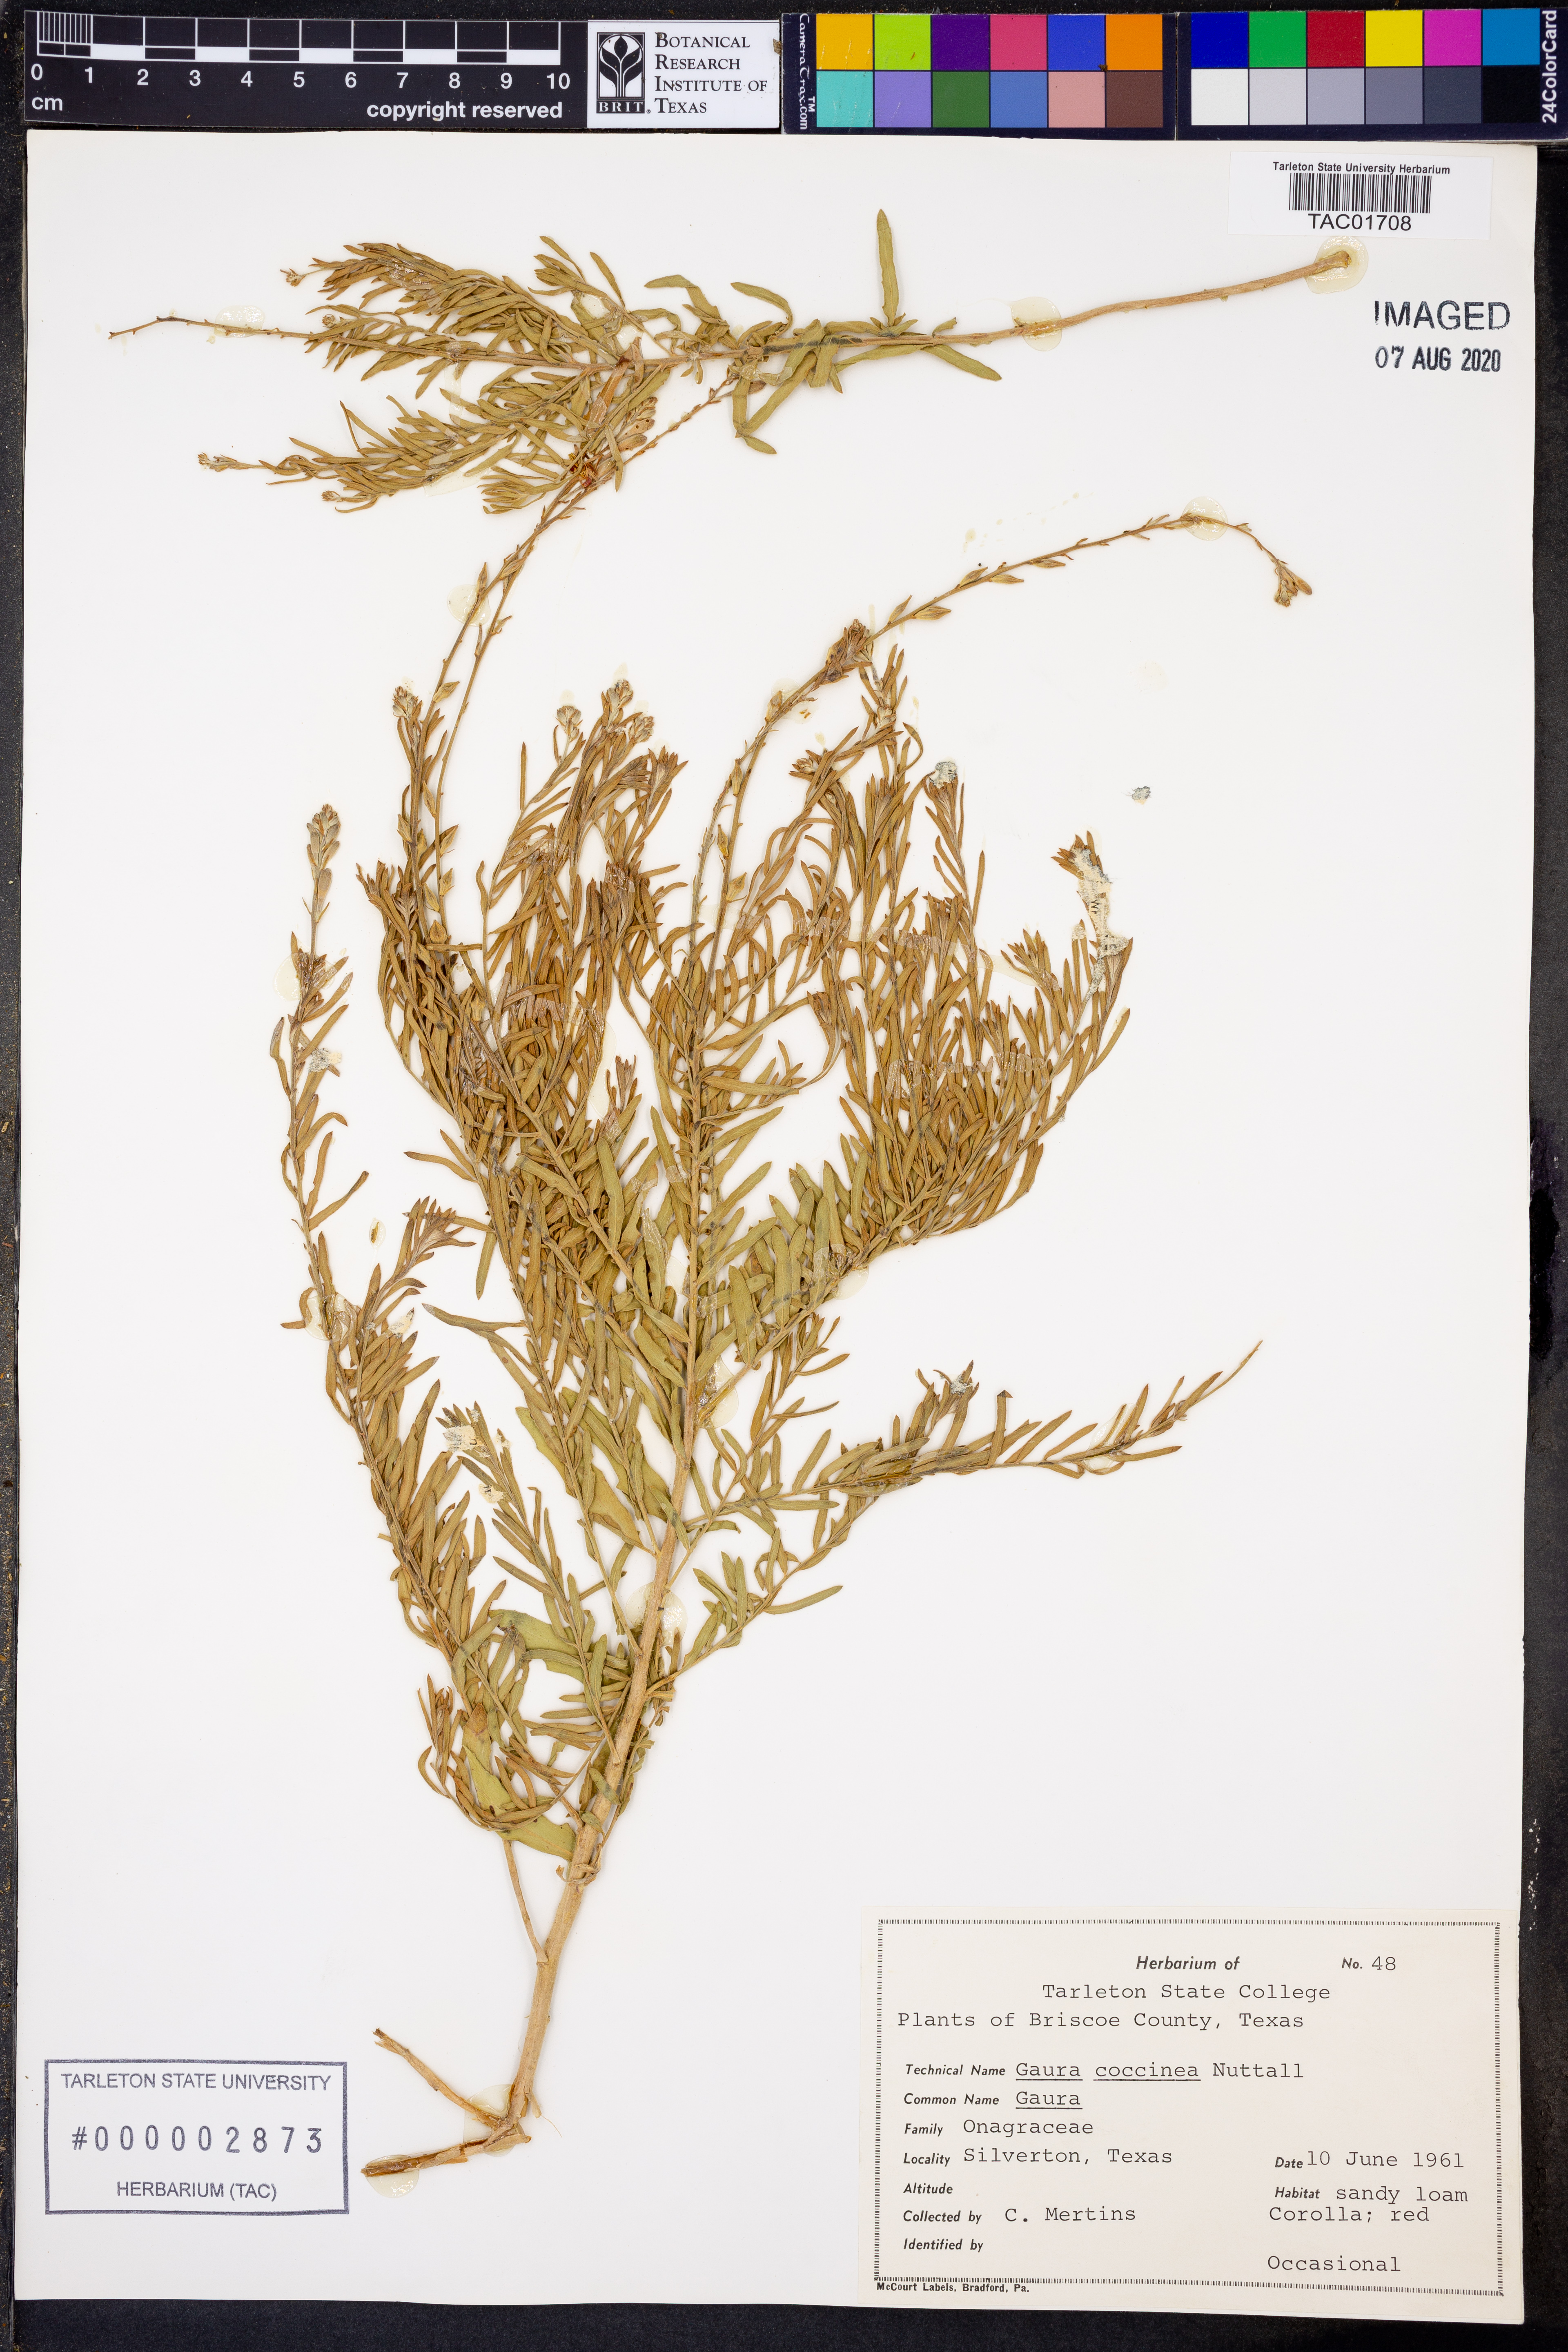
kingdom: Plantae
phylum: Tracheophyta
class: Magnoliopsida
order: Myrtales
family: Onagraceae
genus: Oenothera
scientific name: Oenothera suffrutescens
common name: Scarlet beeblossom
